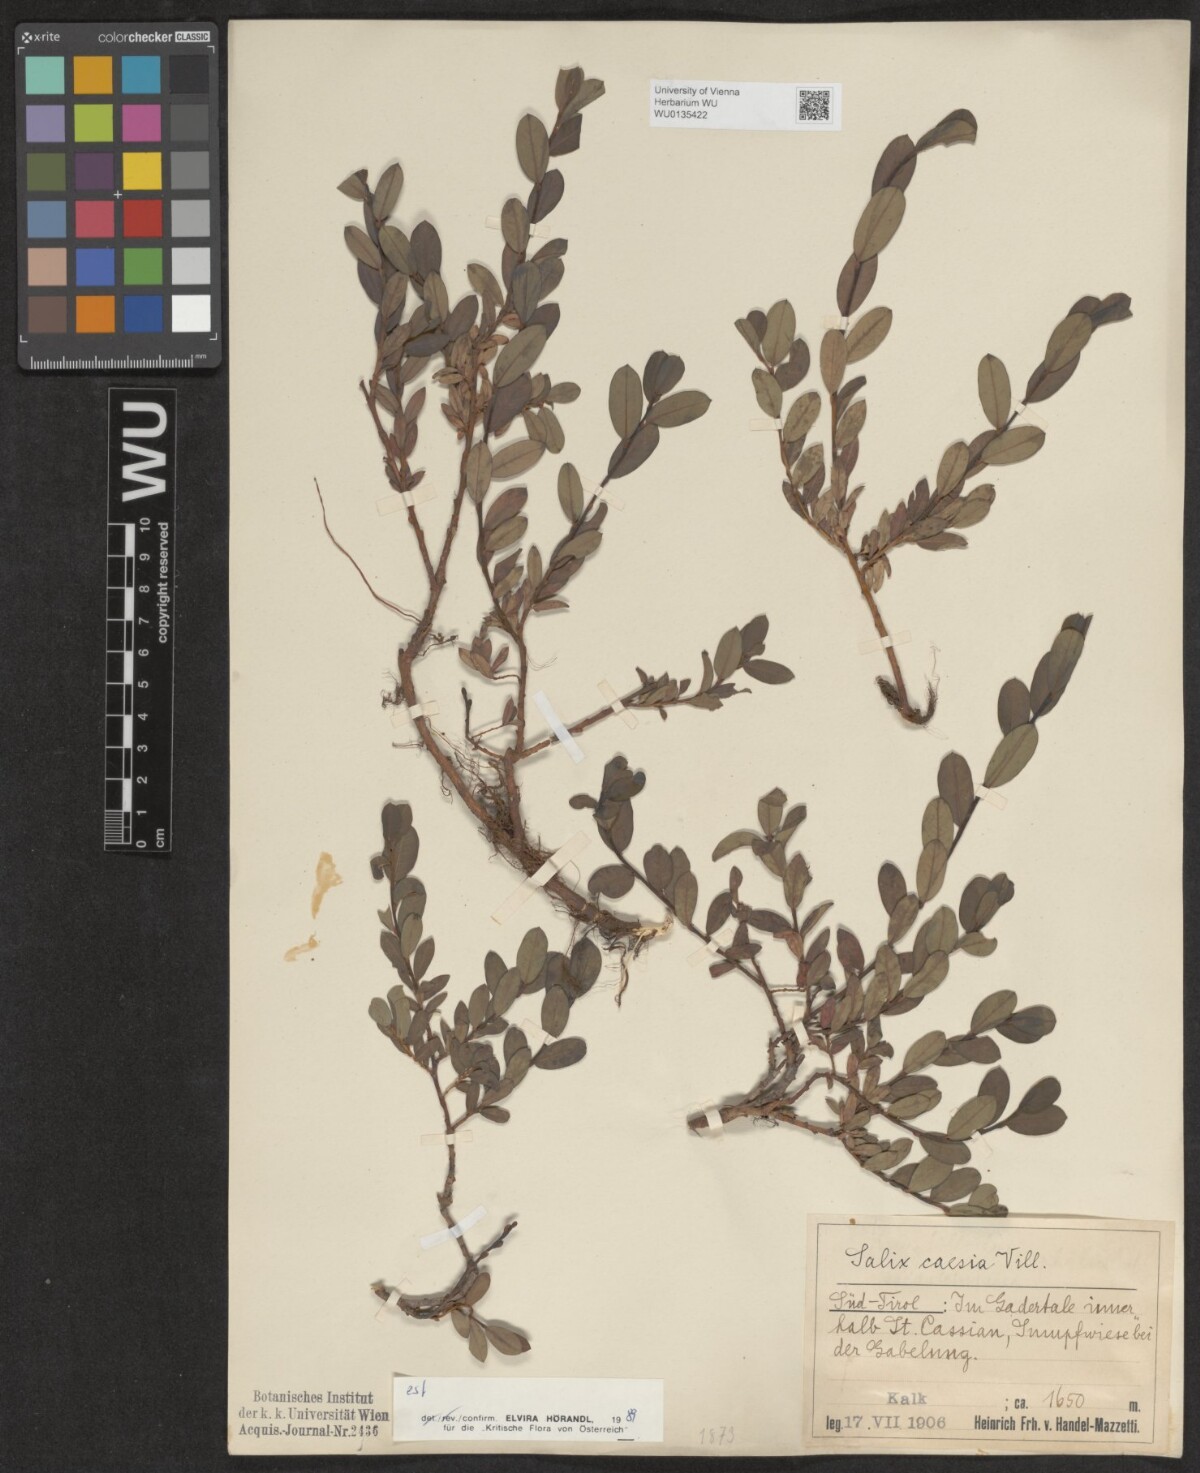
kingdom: Plantae
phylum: Tracheophyta
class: Magnoliopsida
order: Malpighiales
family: Salicaceae
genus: Salix
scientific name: Salix caesia
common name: Blue willow
